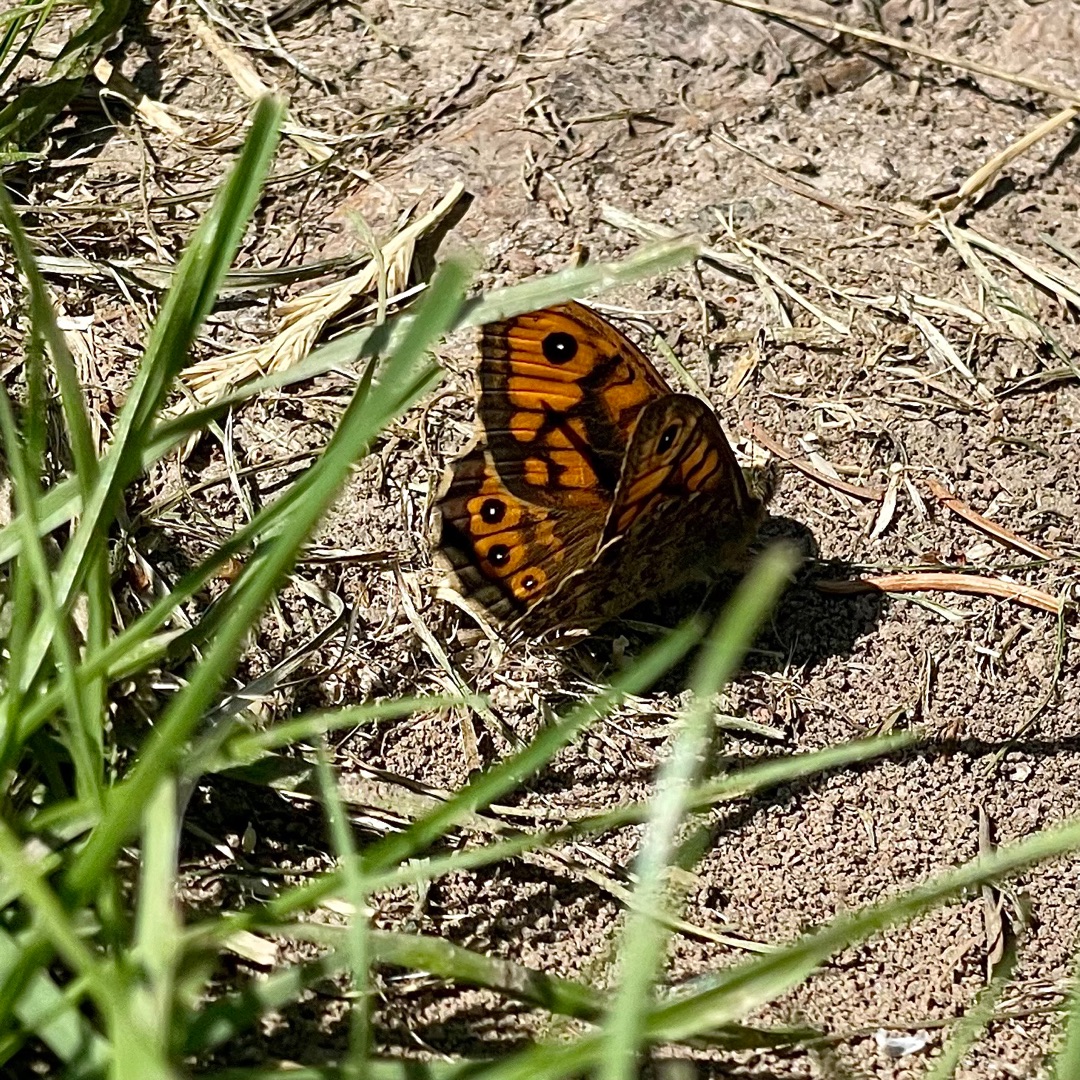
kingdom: Animalia
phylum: Arthropoda
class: Insecta
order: Lepidoptera
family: Nymphalidae
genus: Pararge
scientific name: Pararge Lasiommata megera
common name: Vejrandøje
